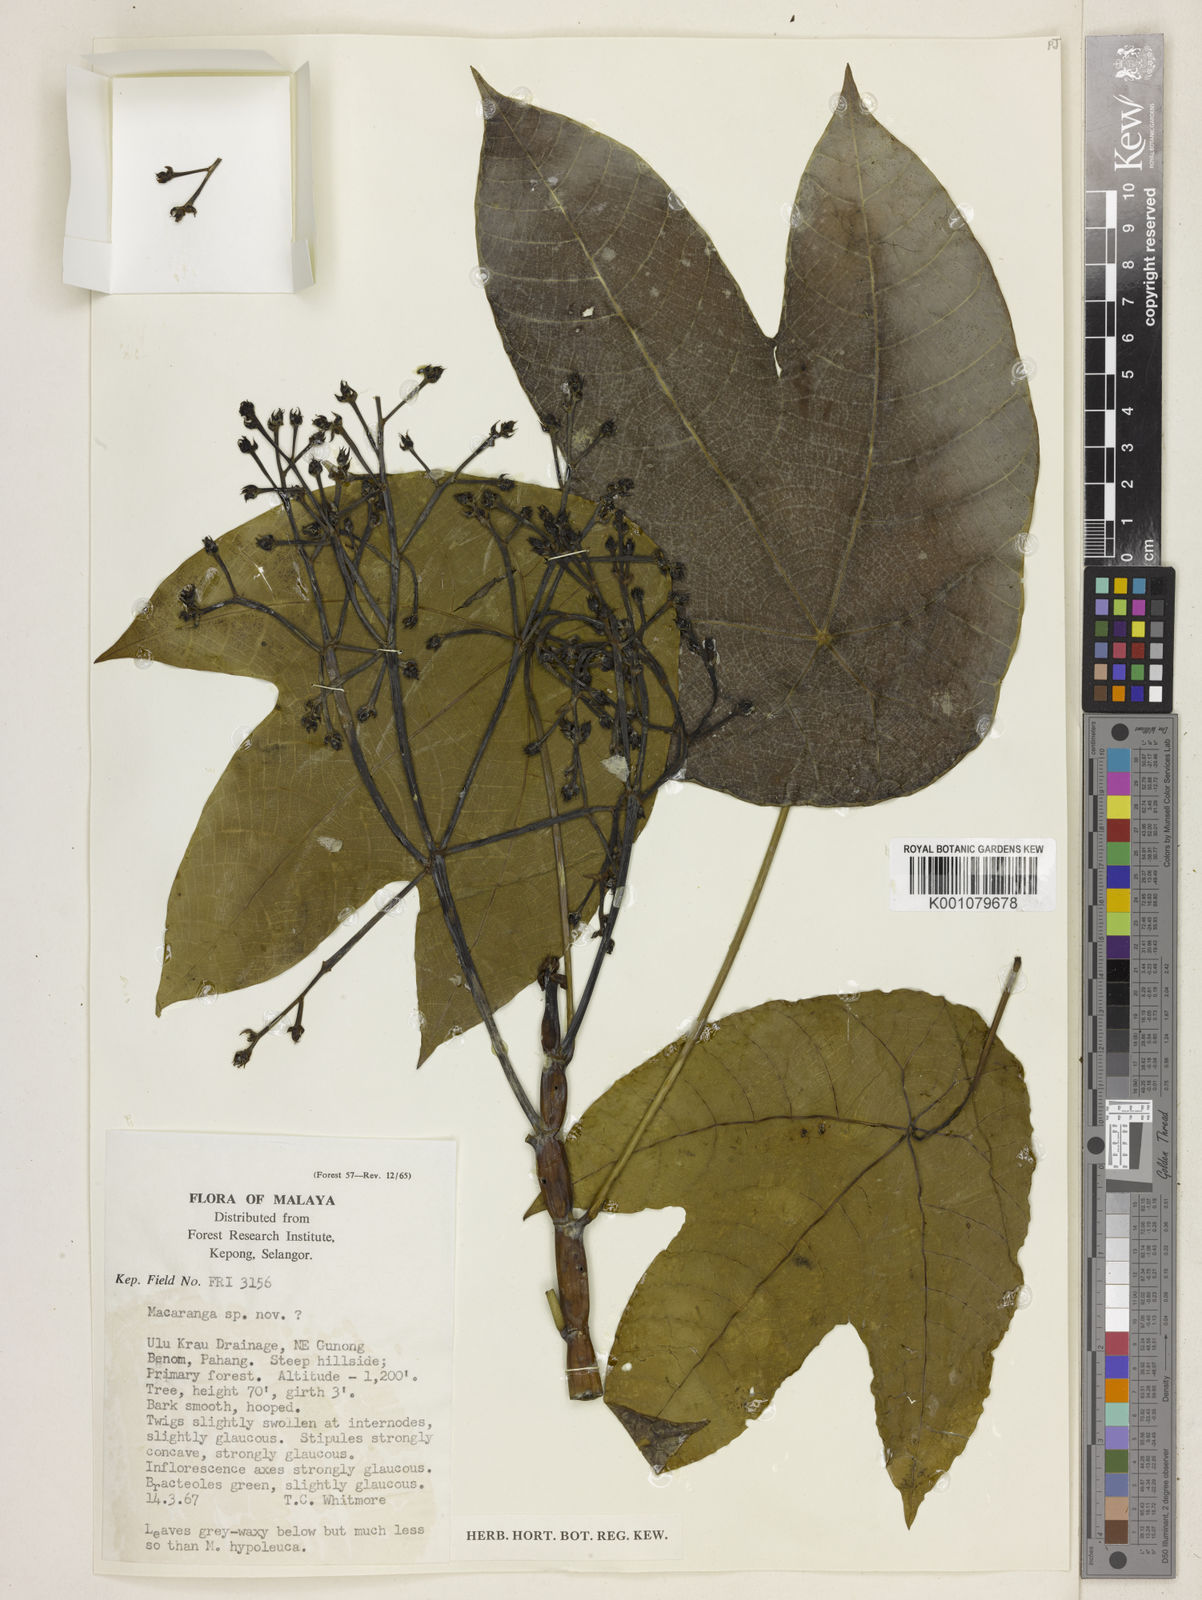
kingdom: Plantae
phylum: Tracheophyta
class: Magnoliopsida
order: Malpighiales
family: Euphorbiaceae
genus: Macaranga
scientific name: Macaranga constricta
